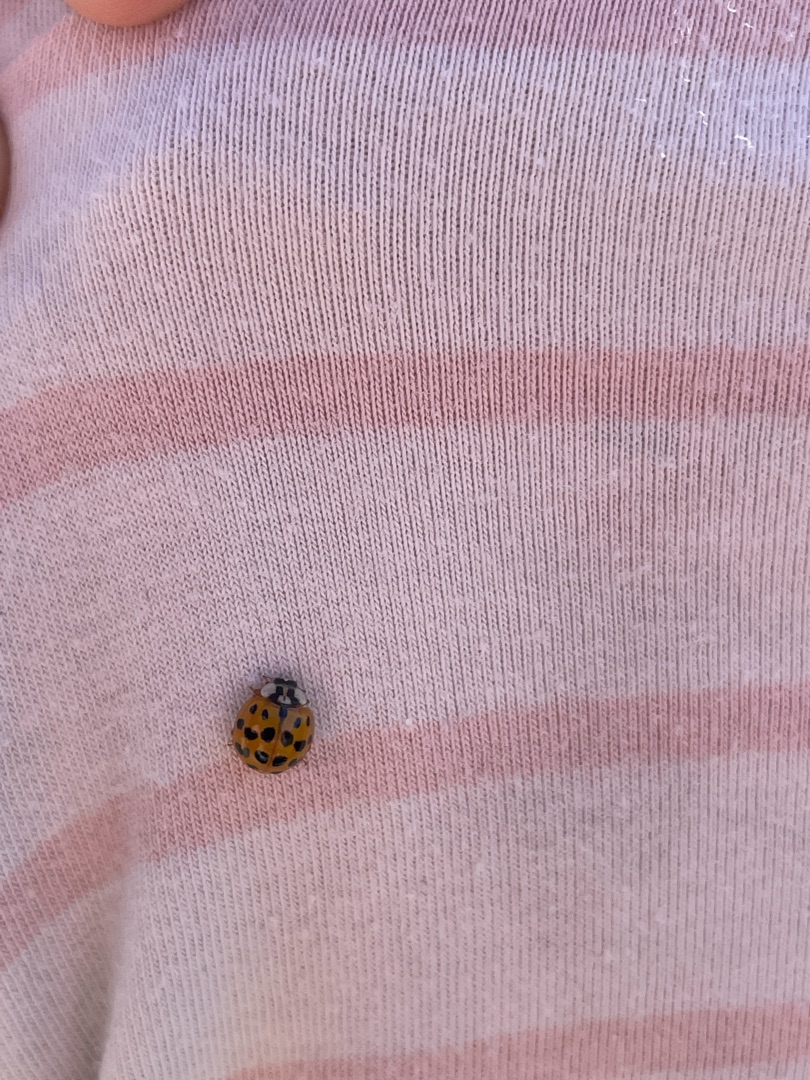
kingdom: Animalia
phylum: Arthropoda
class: Insecta
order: Coleoptera
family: Coccinellidae
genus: Harmonia
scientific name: Harmonia axyridis
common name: Harlekinmariehøne
